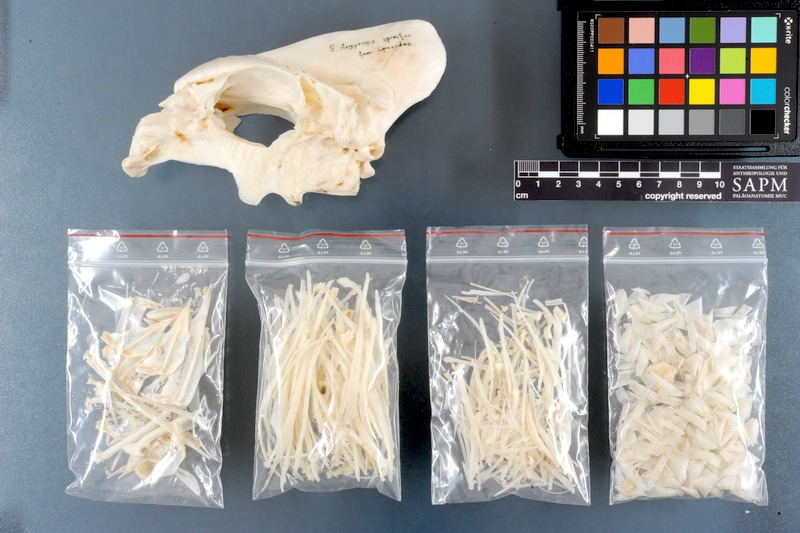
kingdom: Animalia
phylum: Chordata
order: Perciformes
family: Sparidae
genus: Argyrops
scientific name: Argyrops spinifer
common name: King soldier bream
